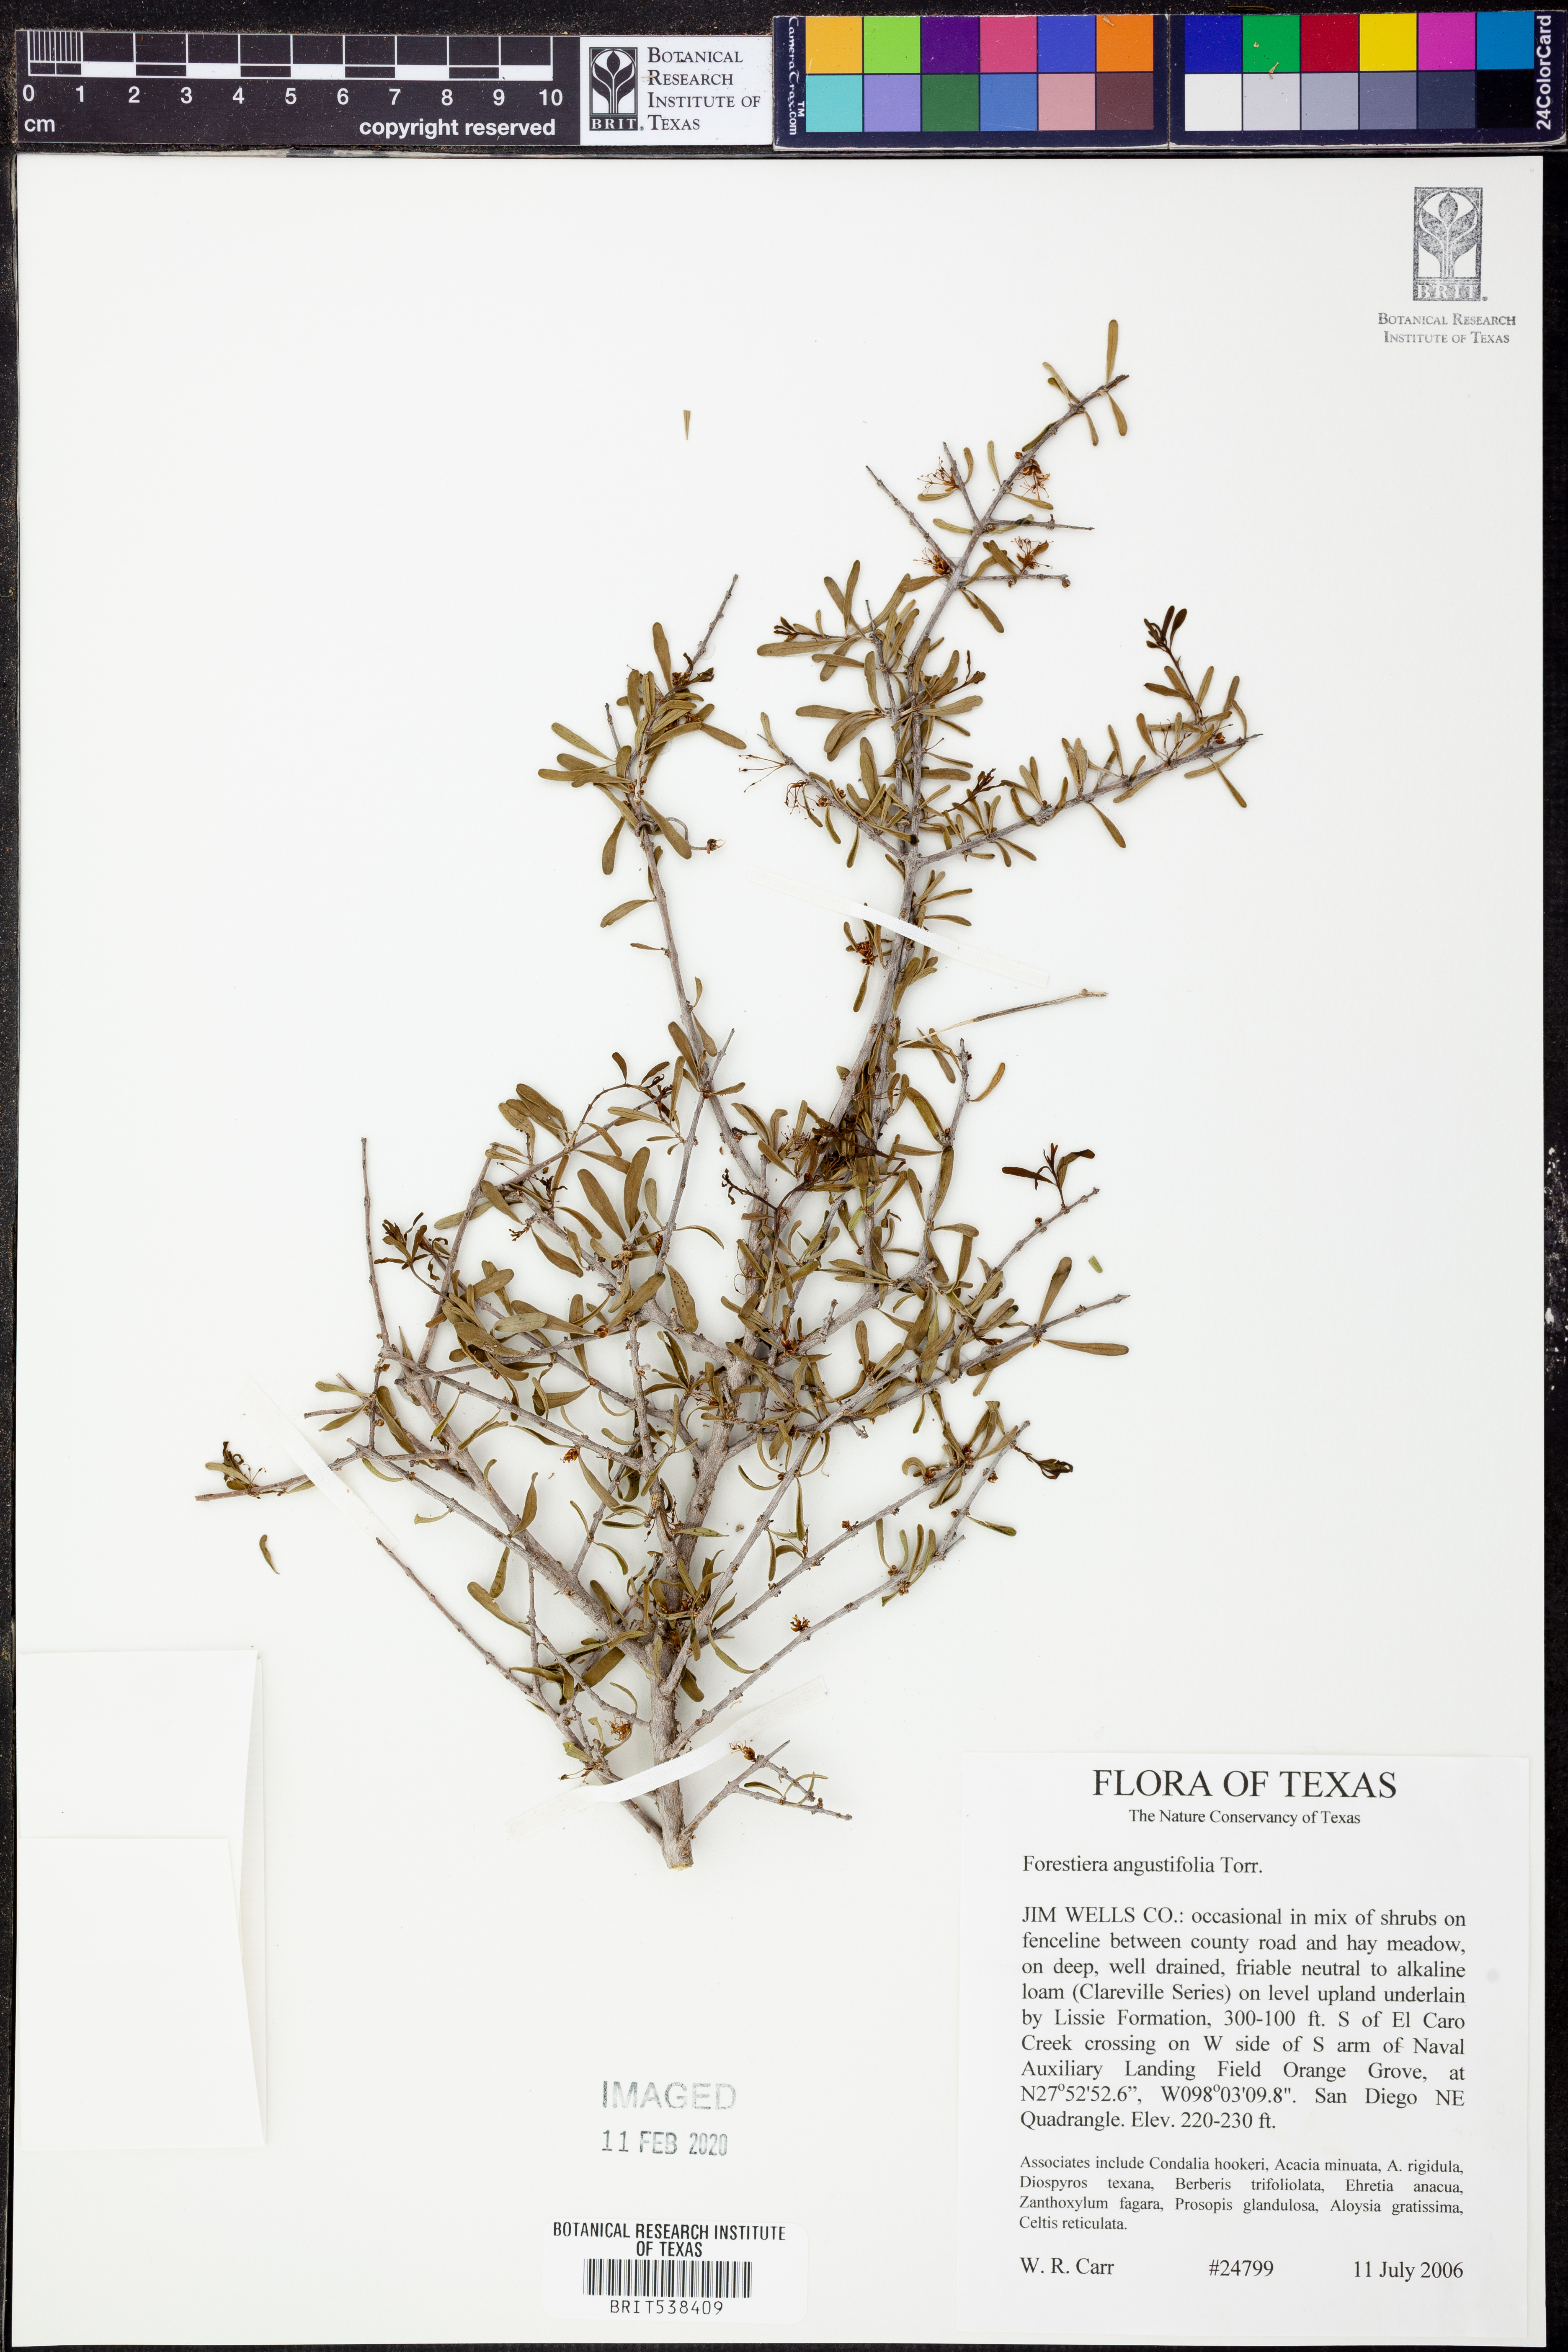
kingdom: Plantae
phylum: Tracheophyta
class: Magnoliopsida
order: Lamiales
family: Oleaceae
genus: Forestiera
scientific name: Forestiera angustifolia
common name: Elbowbush
